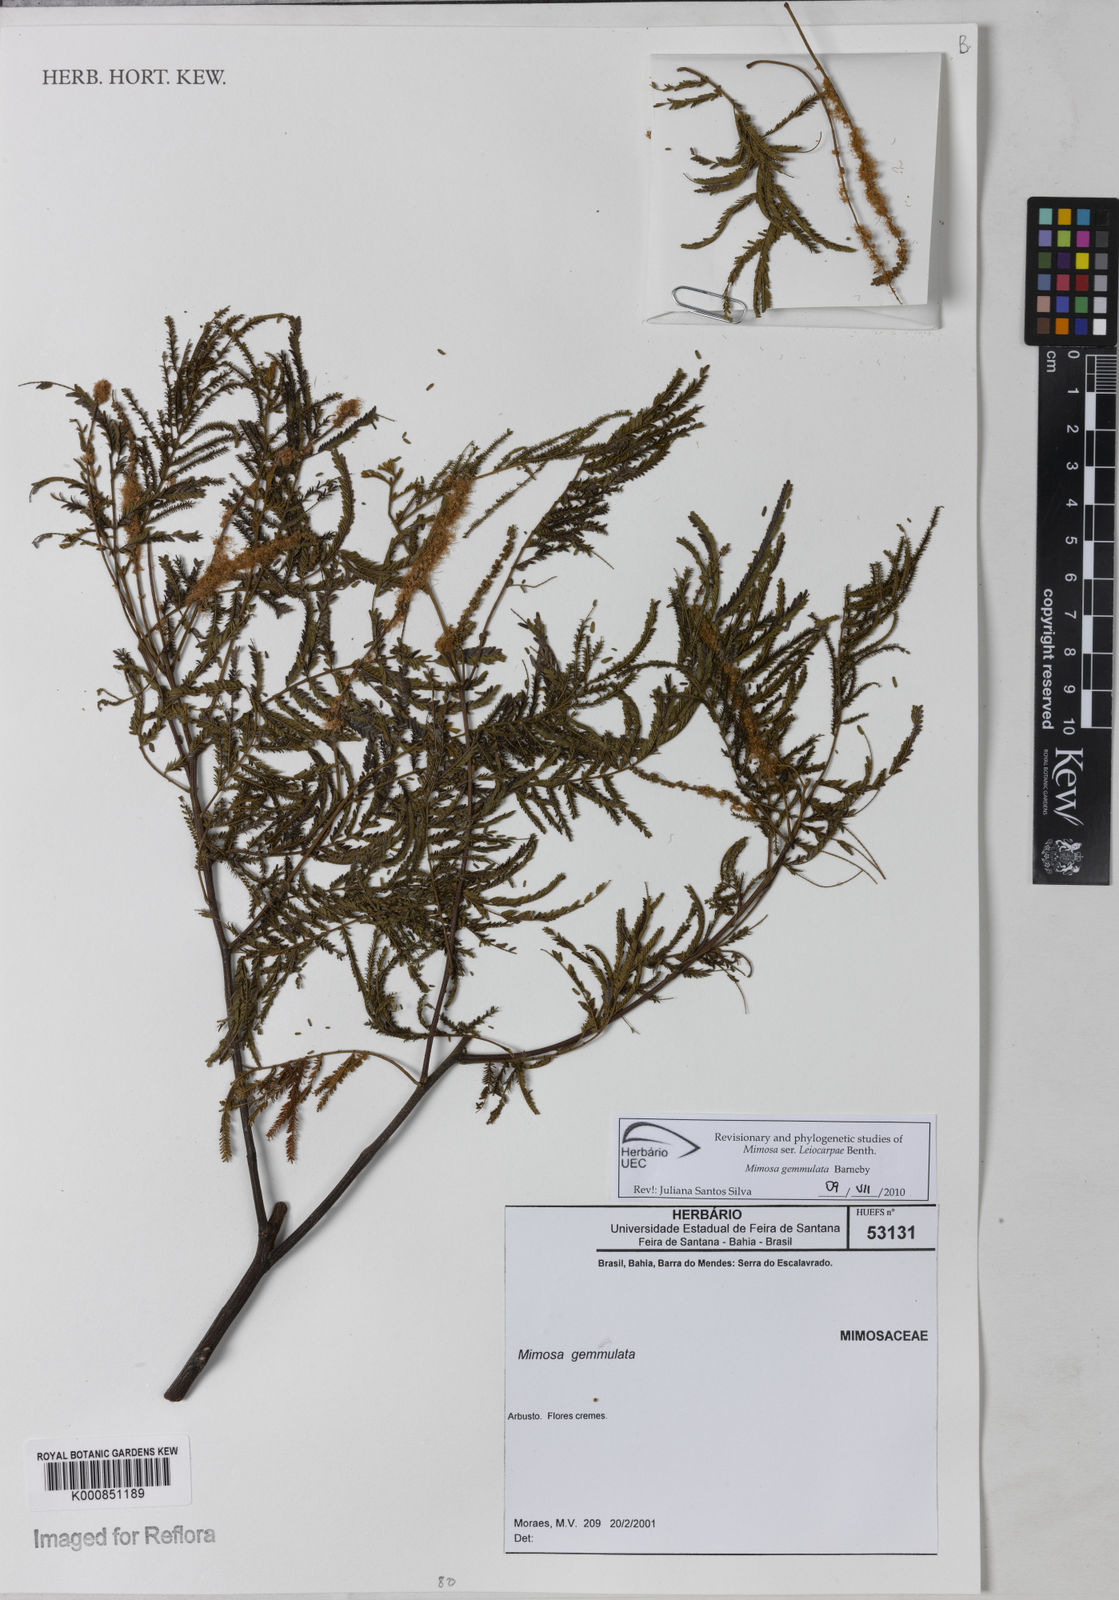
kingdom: Plantae
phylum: Tracheophyta
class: Magnoliopsida
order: Fabales
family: Fabaceae
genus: Mimosa
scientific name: Mimosa gemmulata
